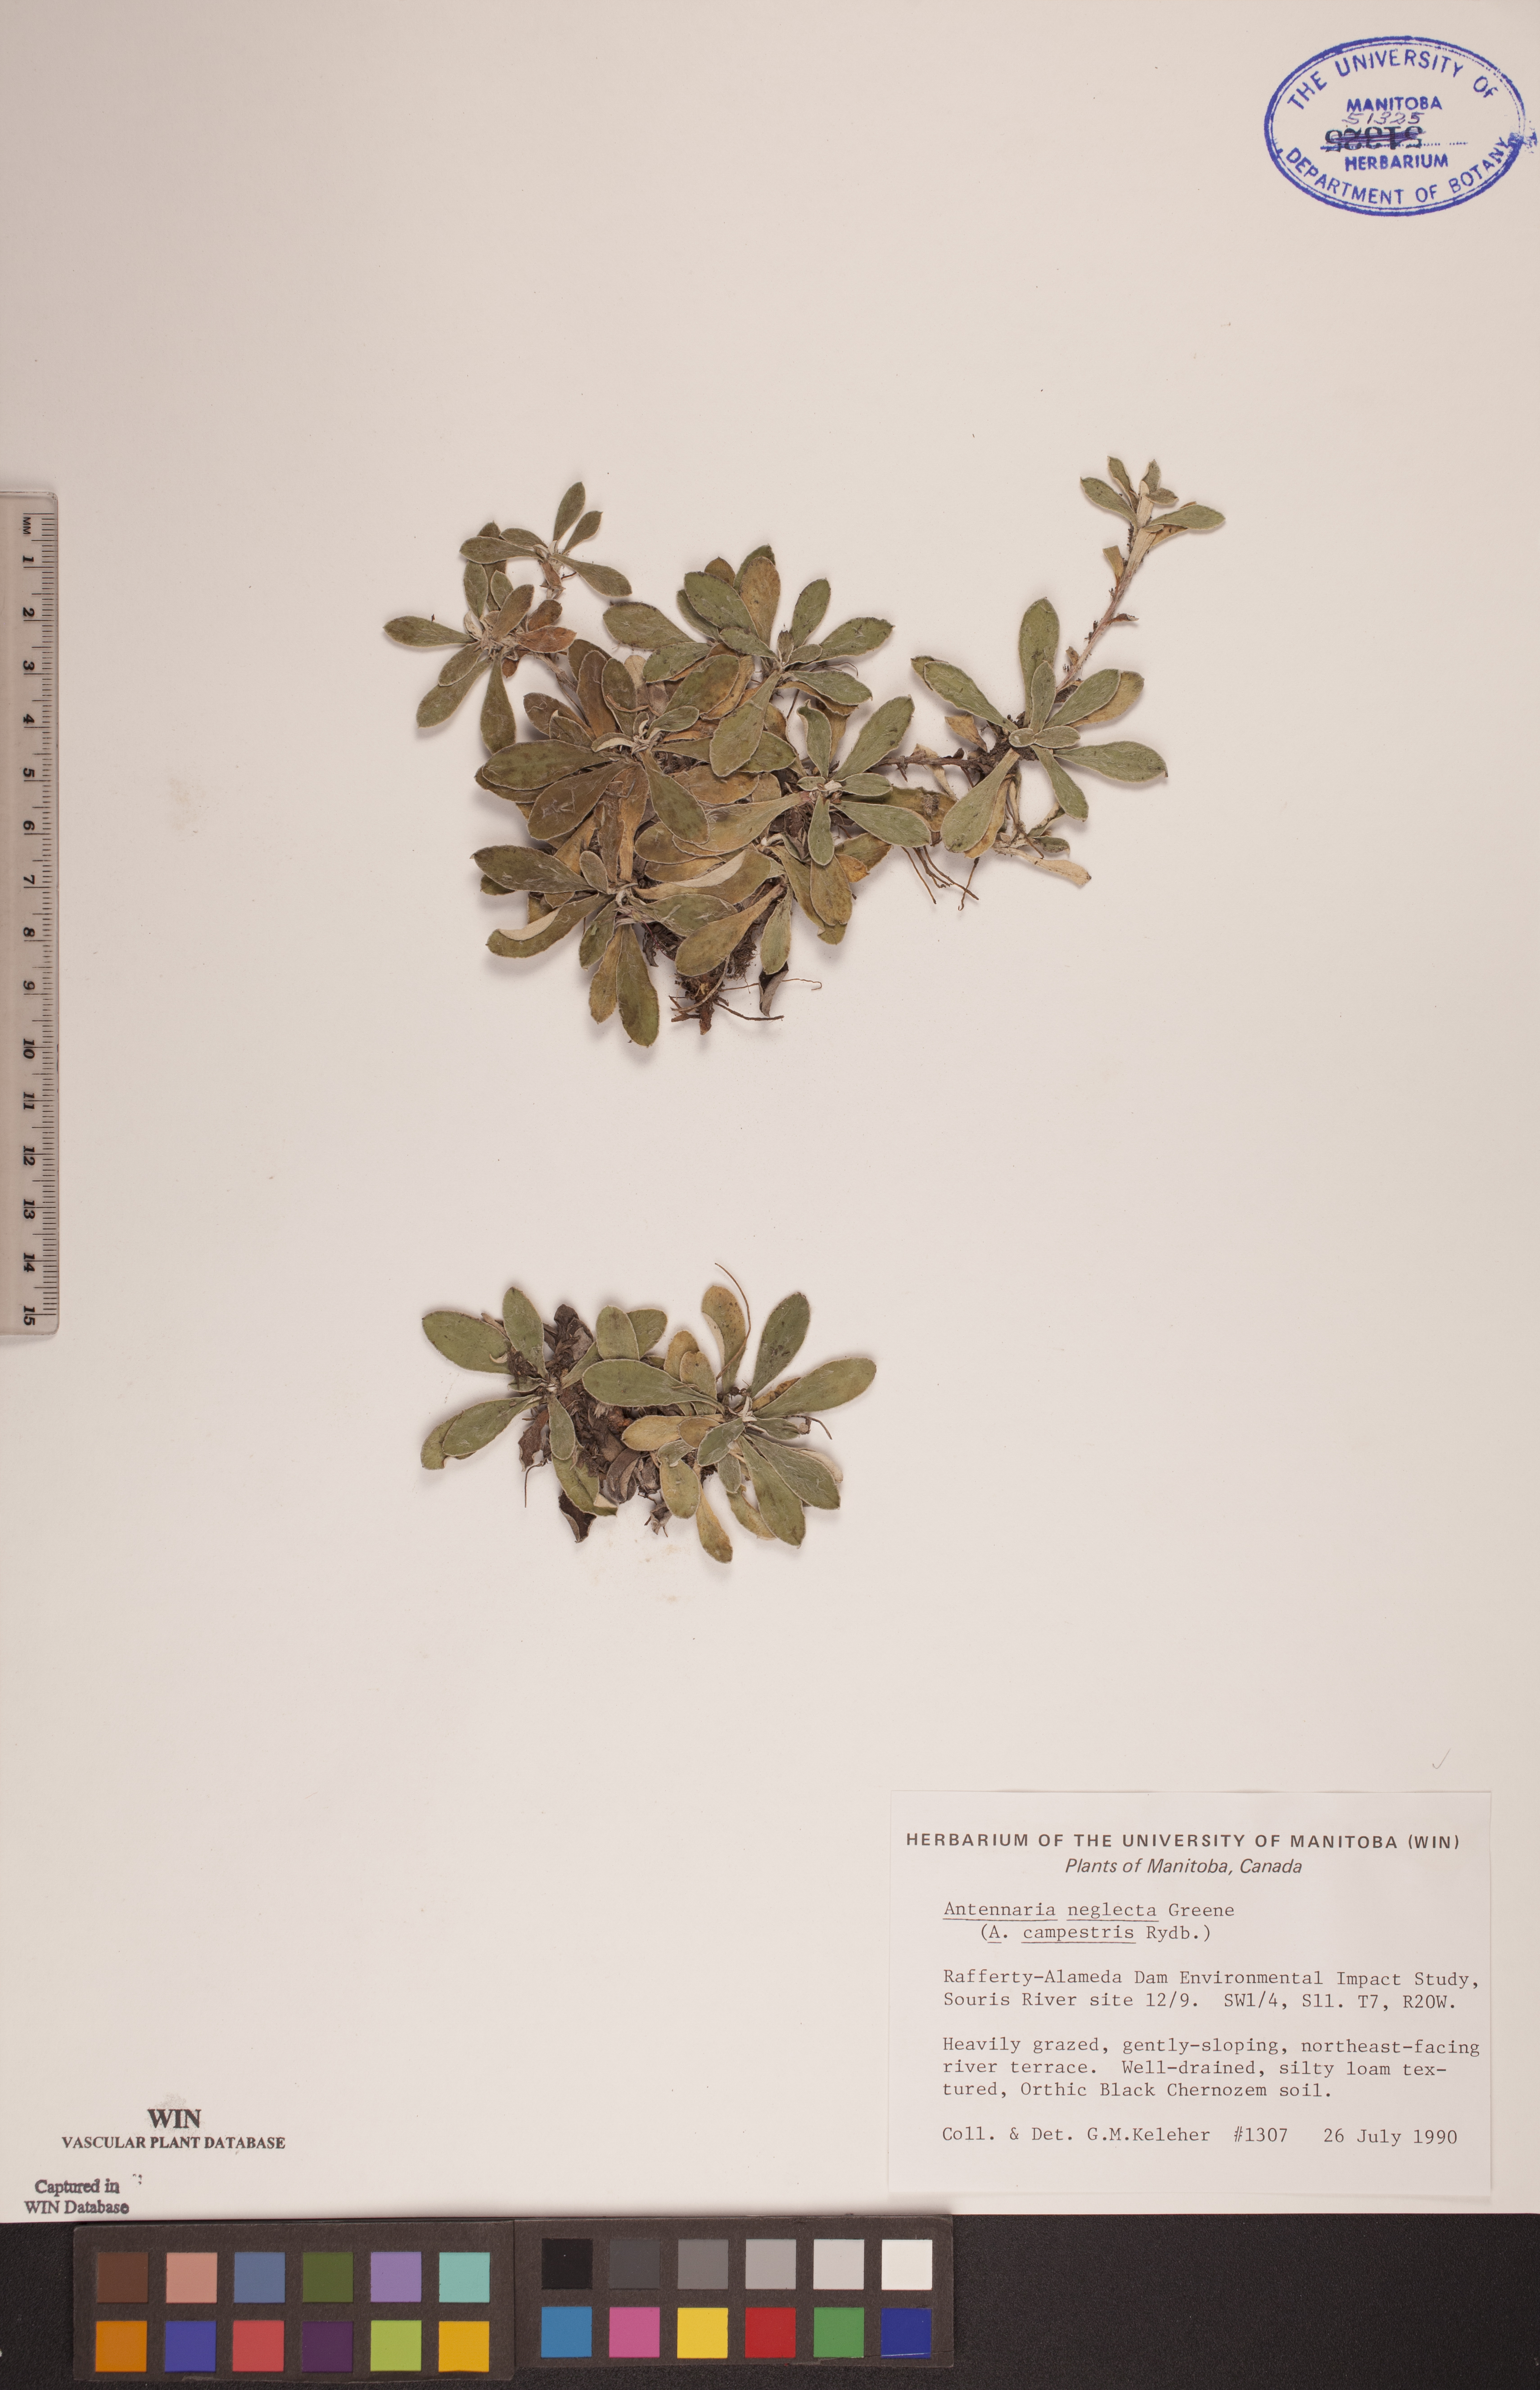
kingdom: Plantae
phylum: Tracheophyta
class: Magnoliopsida
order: Asterales
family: Asteraceae
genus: Antennaria
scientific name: Antennaria neglecta
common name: Field pussytoes
